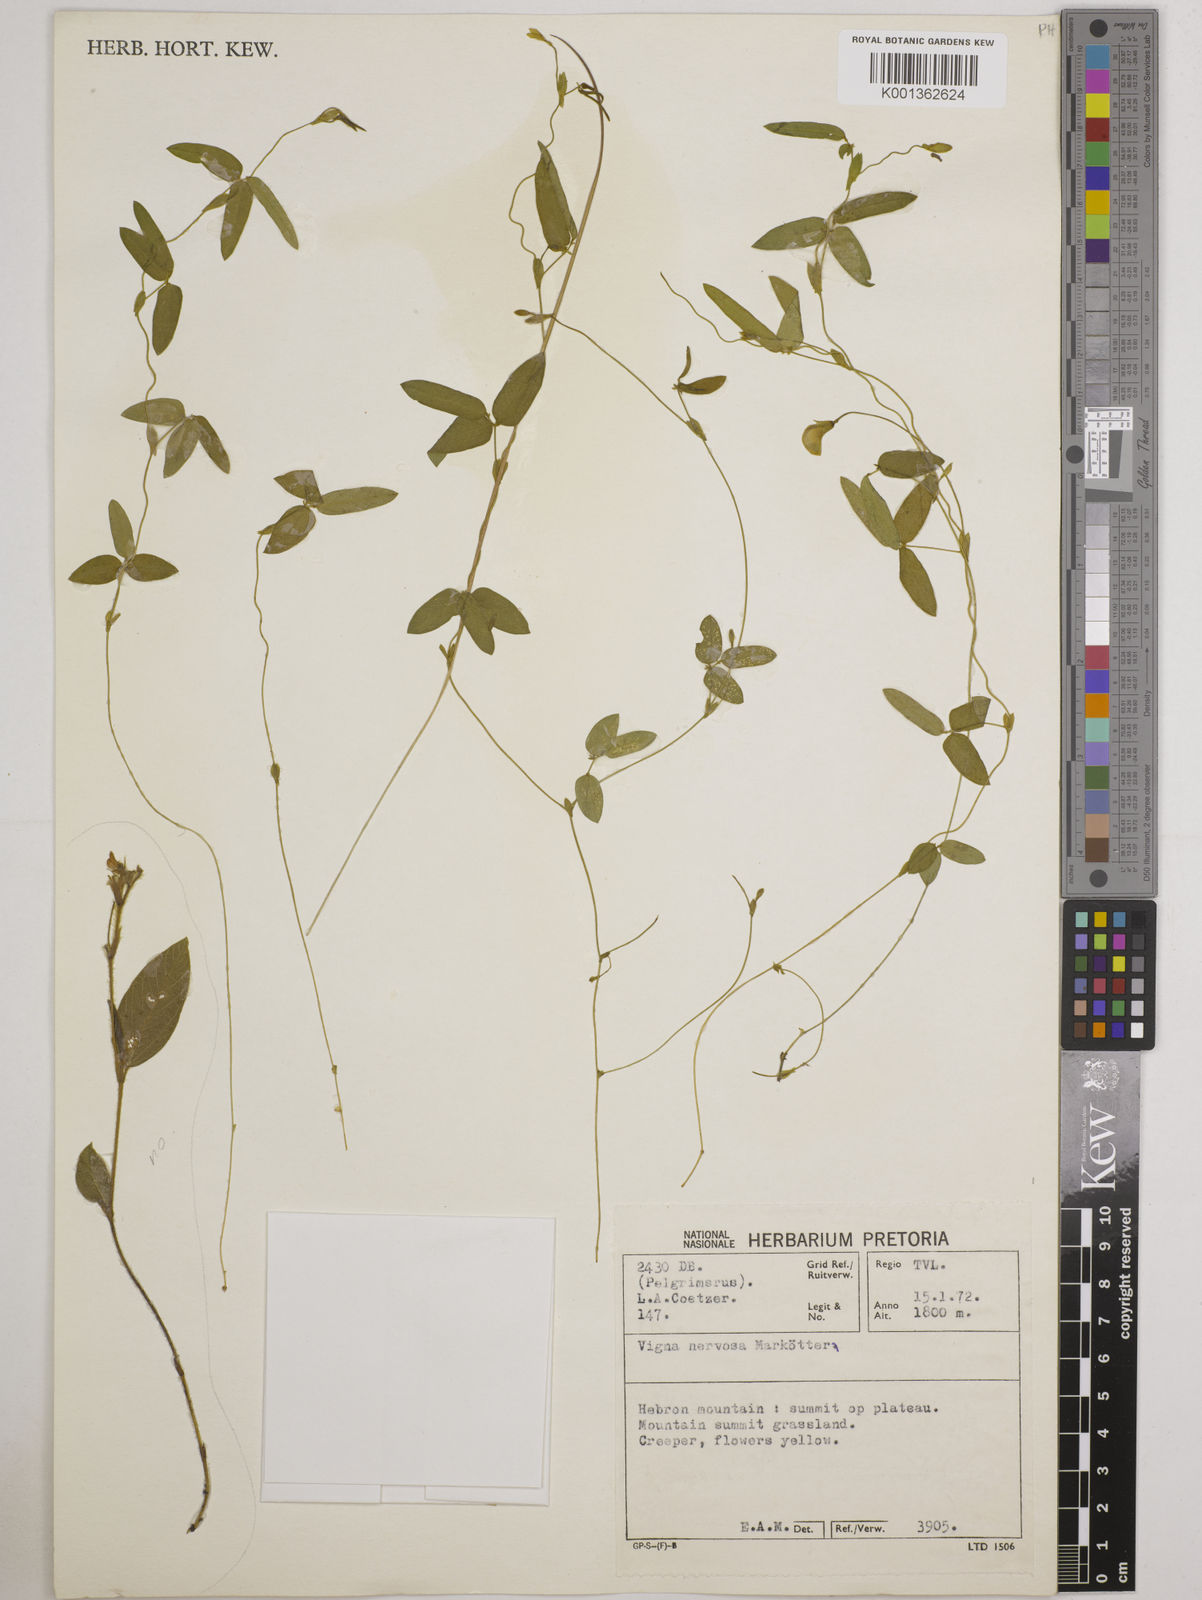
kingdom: Plantae
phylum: Tracheophyta
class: Magnoliopsida
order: Fabales
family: Fabaceae
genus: Vigna
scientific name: Vigna nervosa
